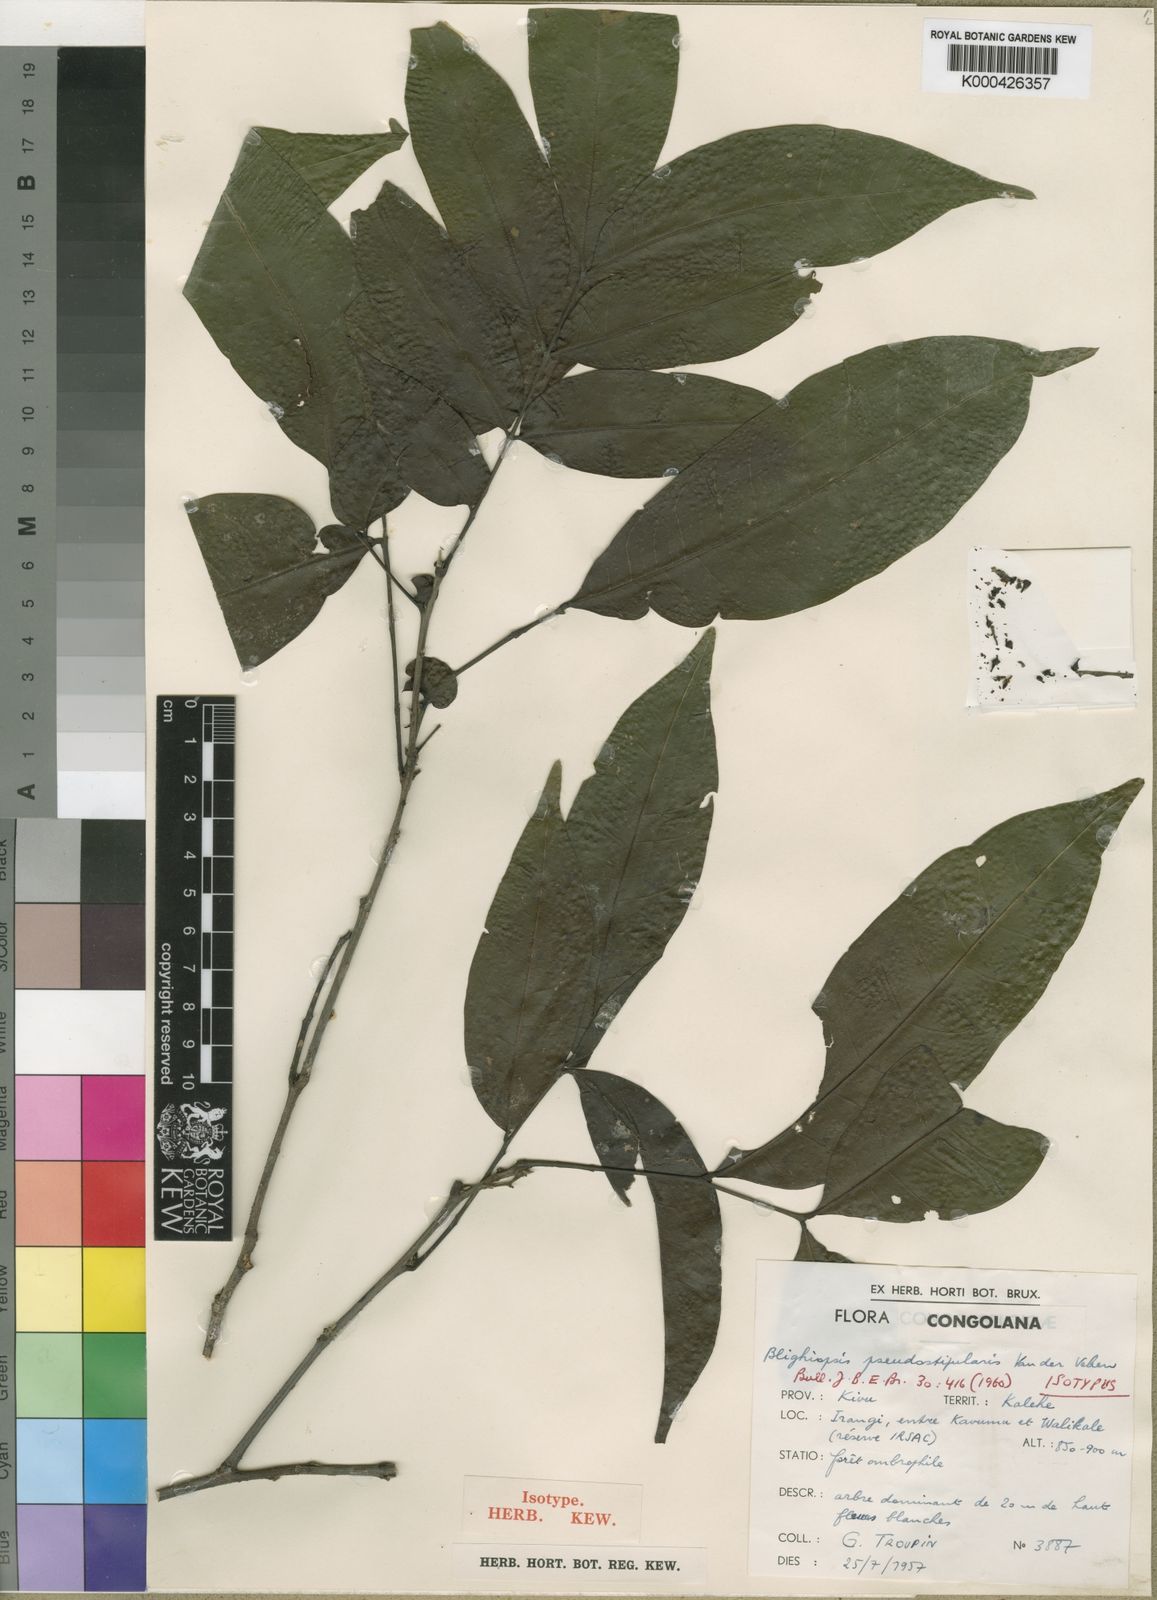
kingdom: Plantae
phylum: Tracheophyta
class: Magnoliopsida
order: Sapindales
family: Sapindaceae
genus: Blighiopsis
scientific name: Blighiopsis pseudostipularis
